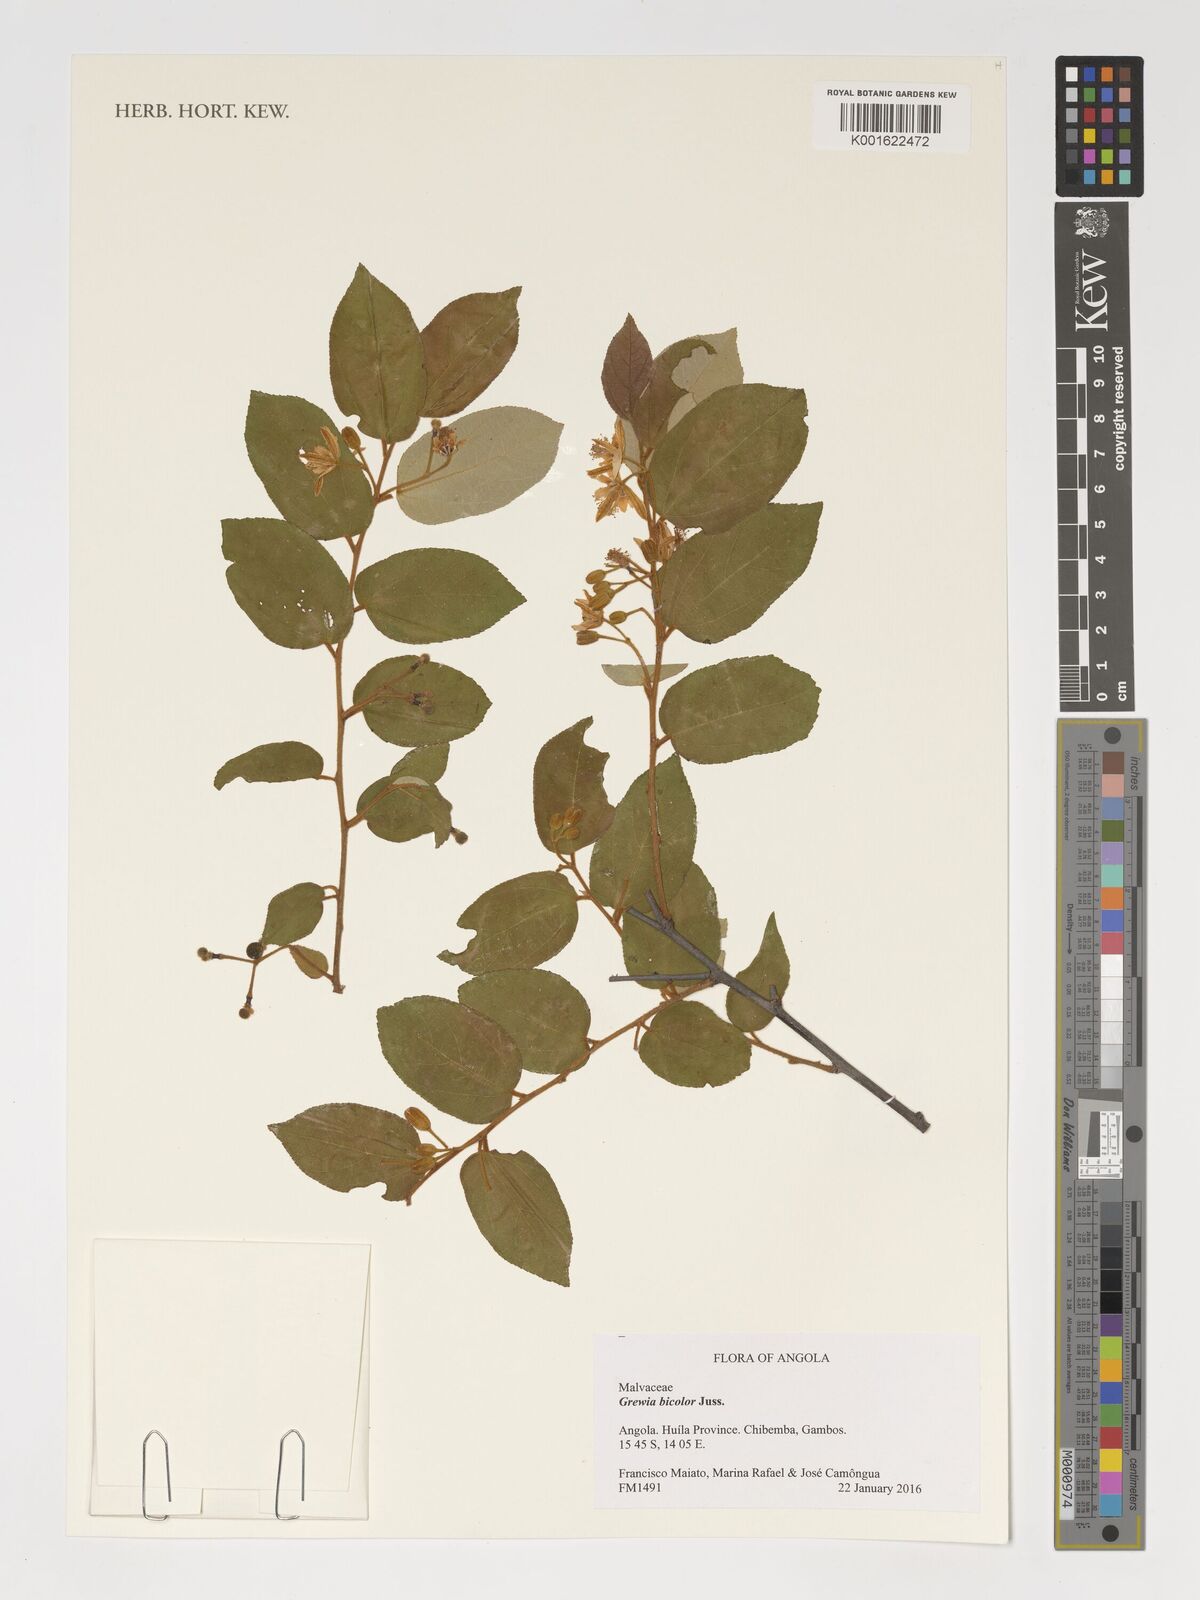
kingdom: Plantae
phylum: Tracheophyta
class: Magnoliopsida
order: Malvales
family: Malvaceae
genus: Grewia
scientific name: Grewia bicolor
